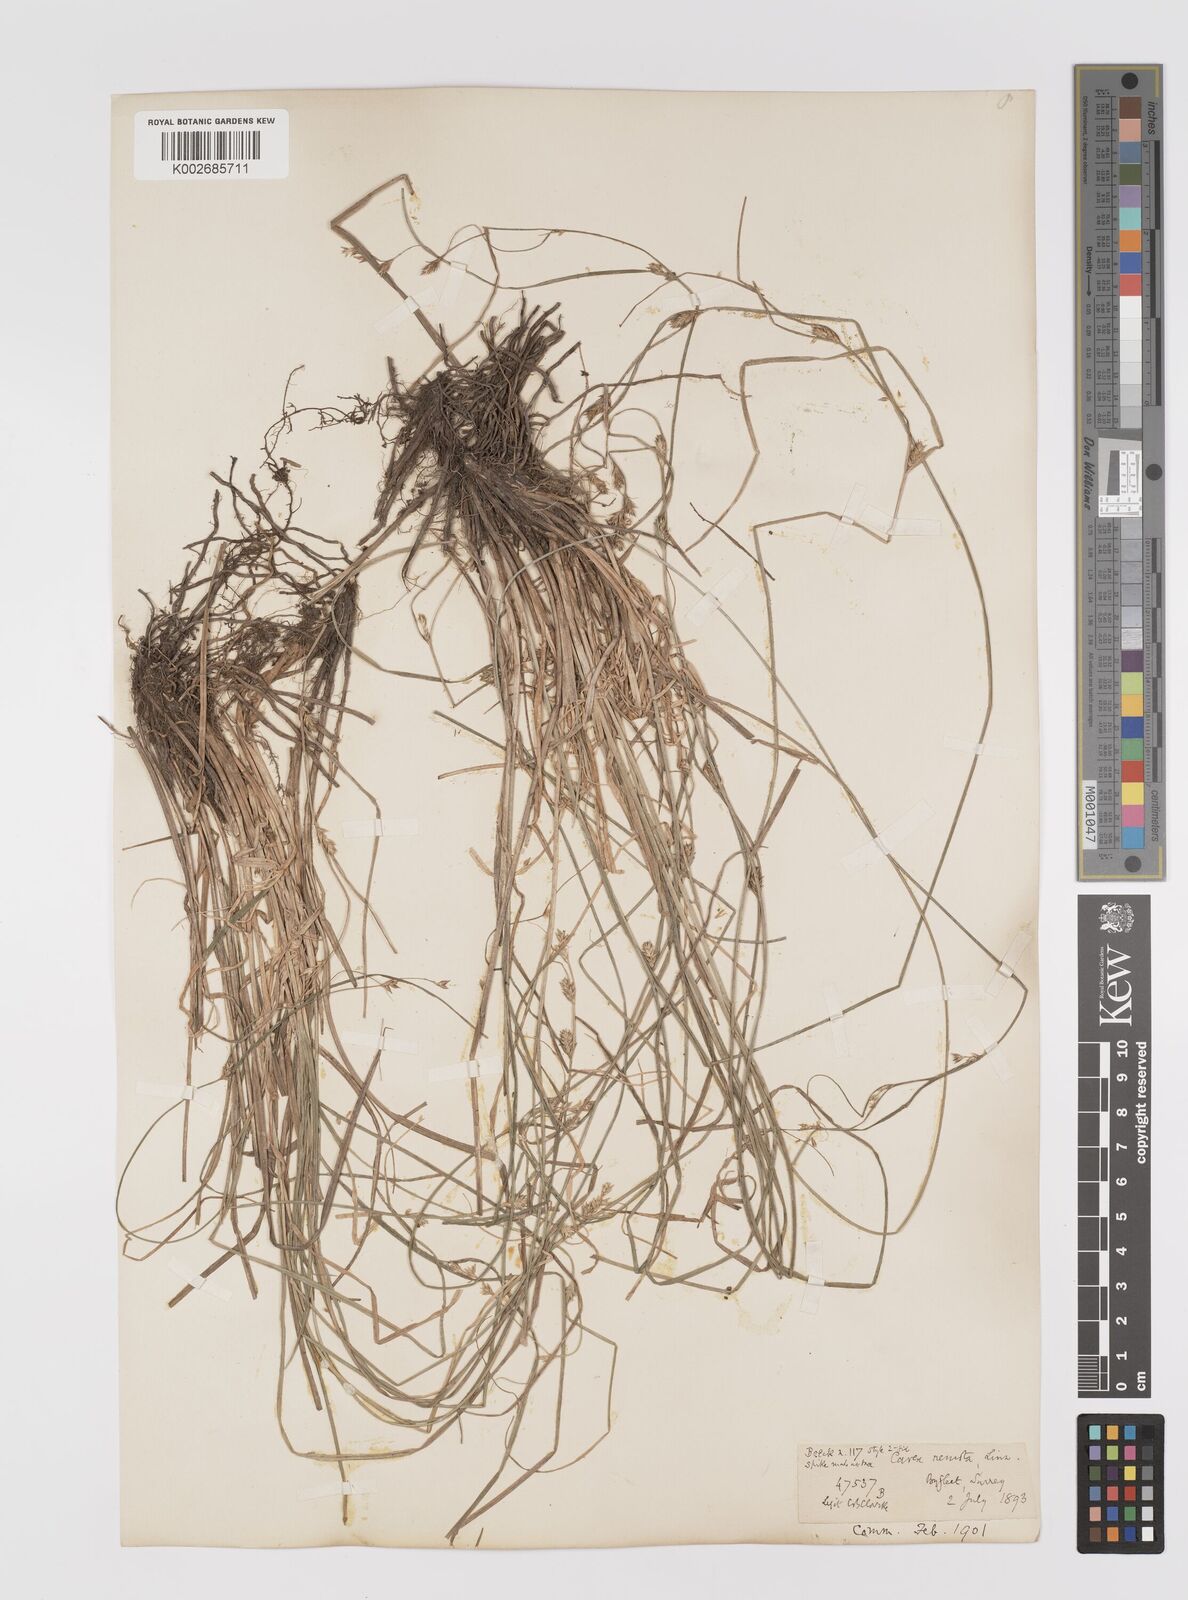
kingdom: Plantae
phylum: Tracheophyta
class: Liliopsida
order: Poales
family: Cyperaceae
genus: Carex
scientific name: Carex remota
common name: Remote sedge
